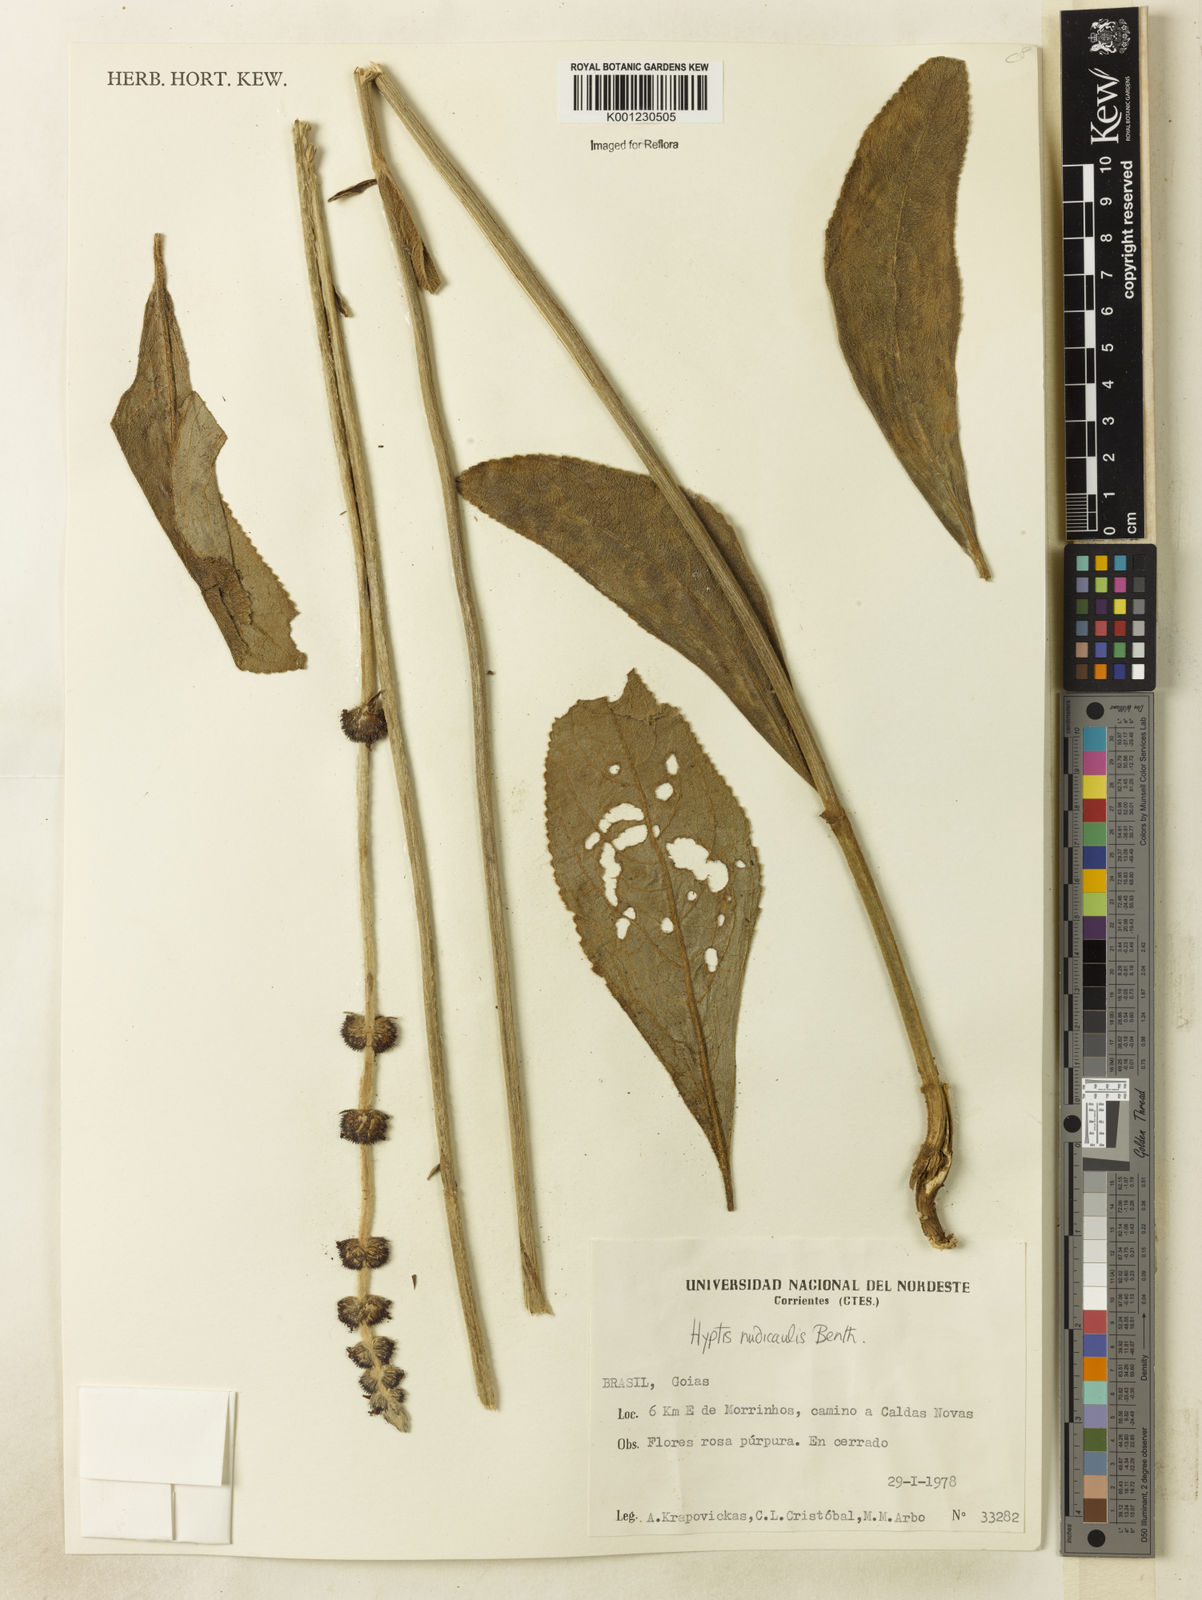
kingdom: Plantae
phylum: Tracheophyta
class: Magnoliopsida
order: Lamiales
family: Lamiaceae
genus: Hyptis
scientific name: Hyptis nudicaulis
